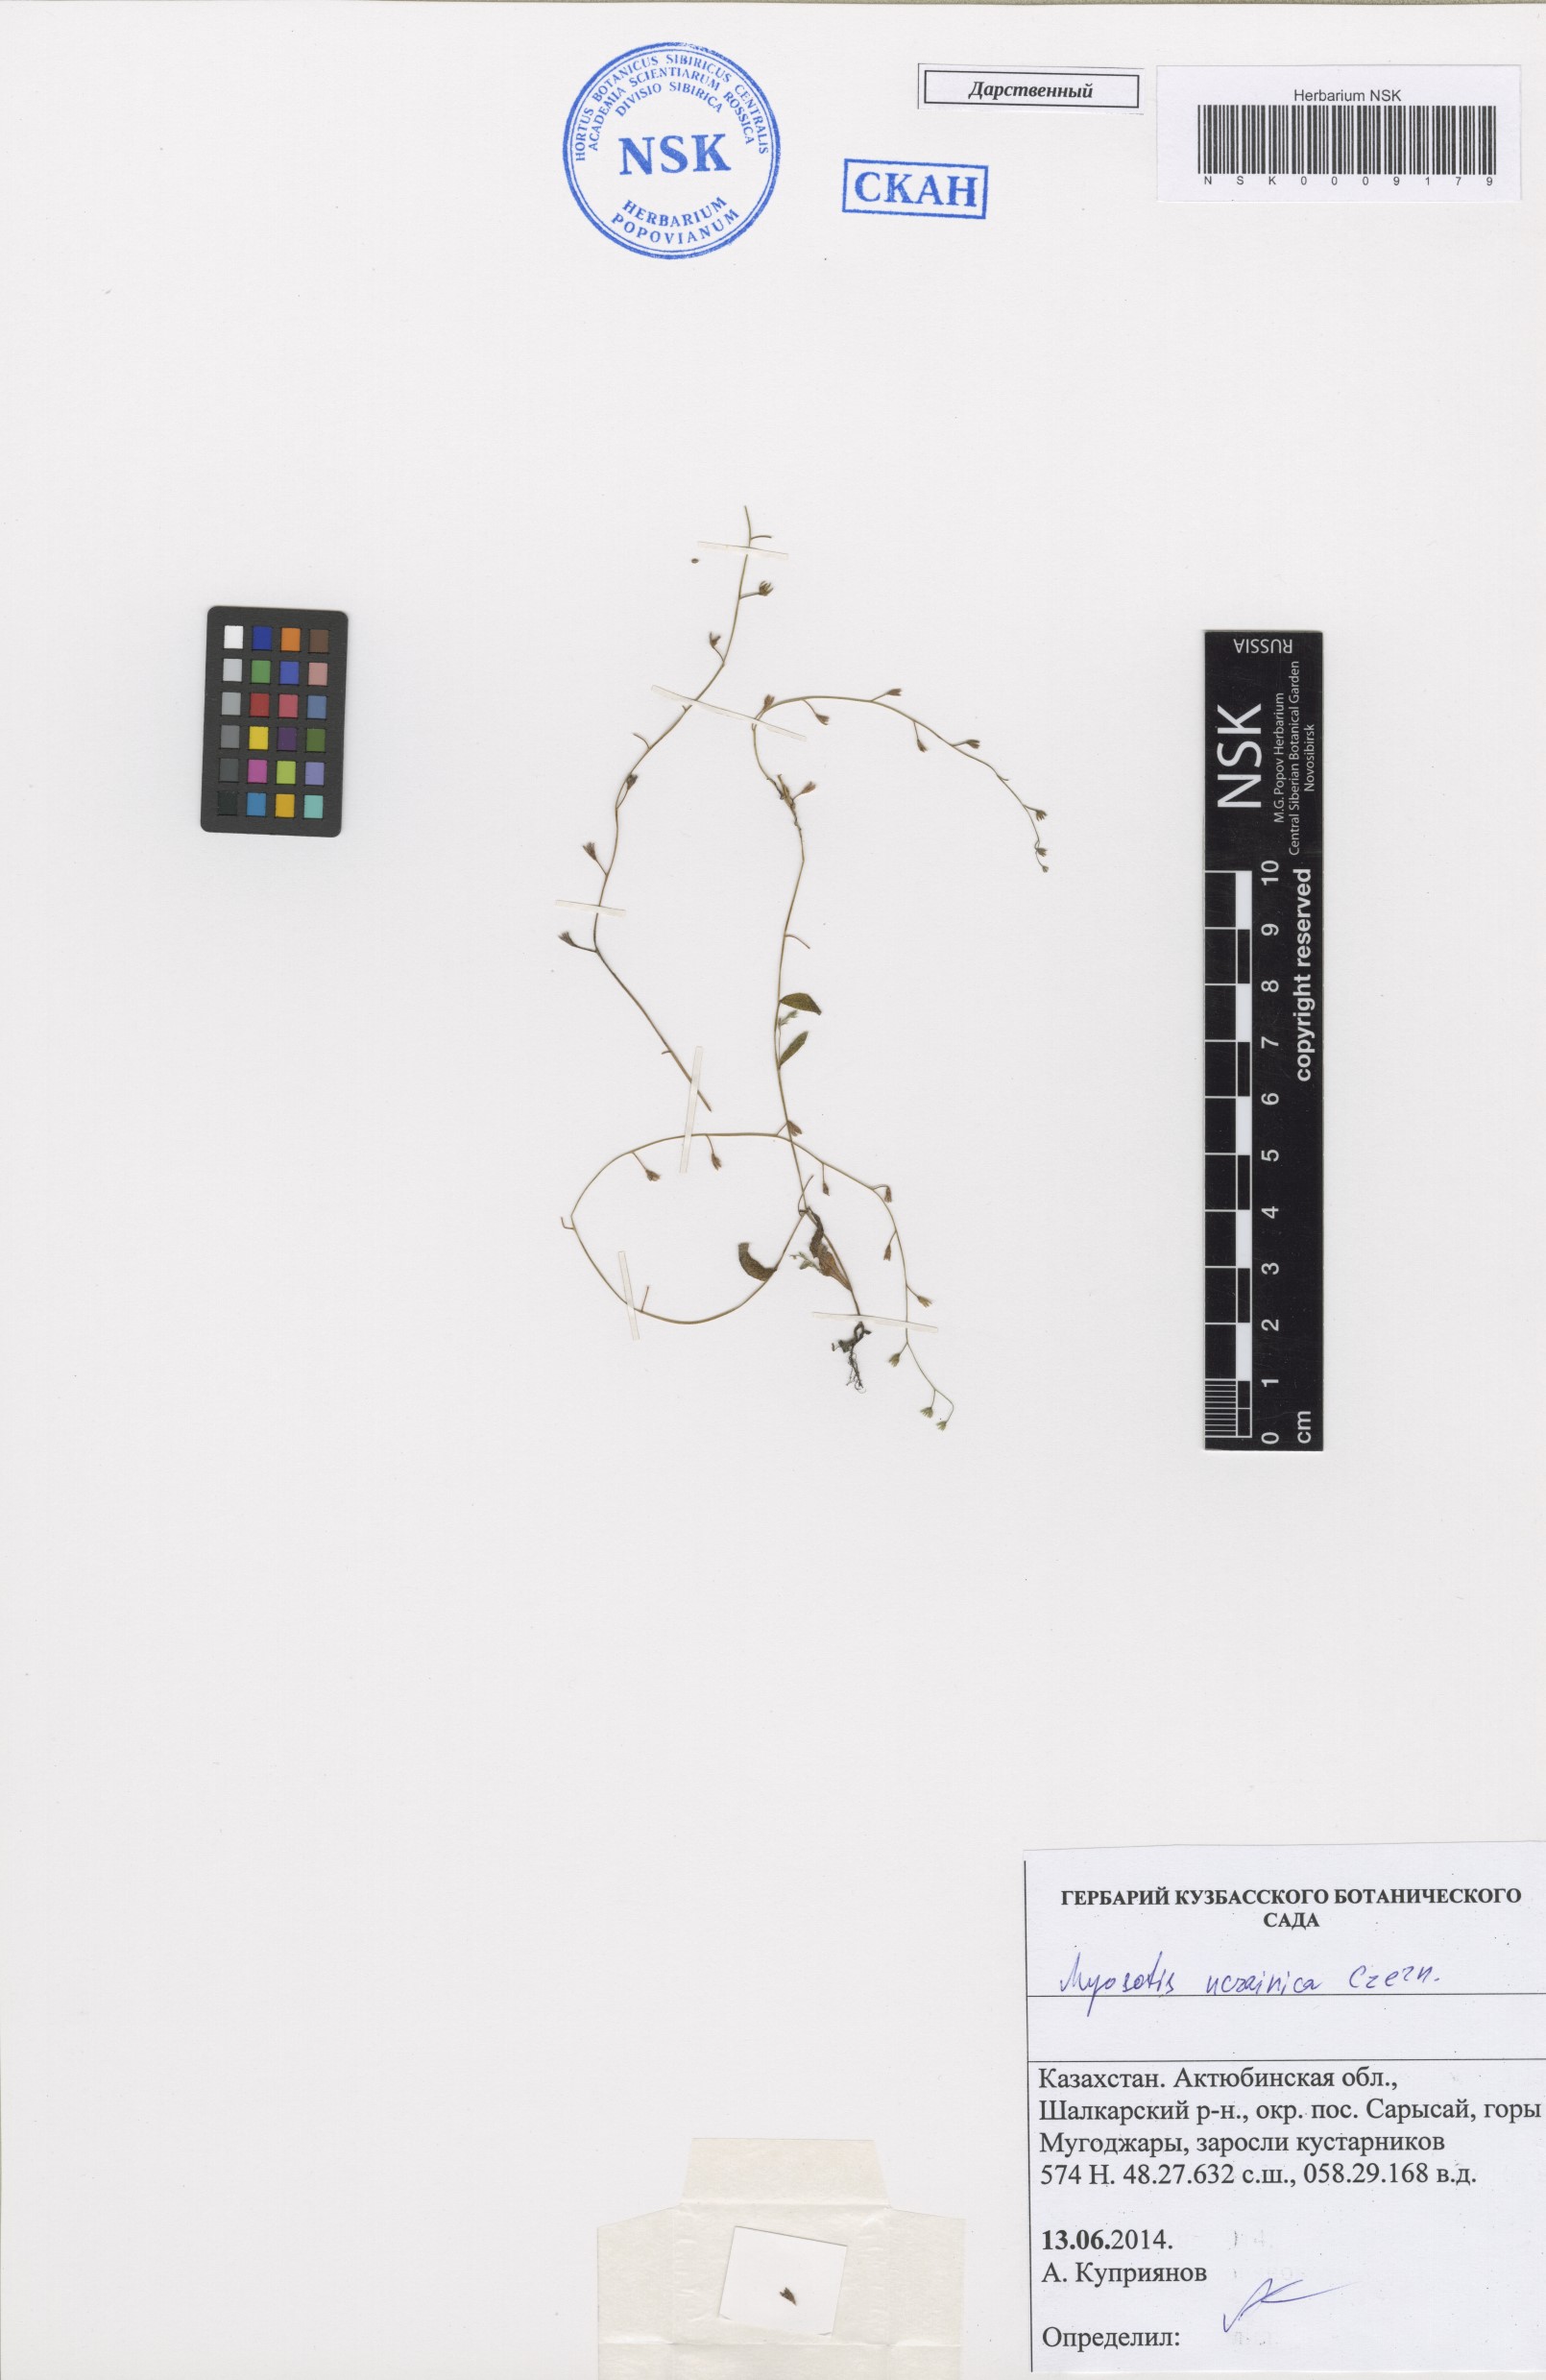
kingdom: Plantae
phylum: Tracheophyta
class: Magnoliopsida
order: Boraginales
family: Boraginaceae
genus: Myosotis
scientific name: Myosotis ucrainica
